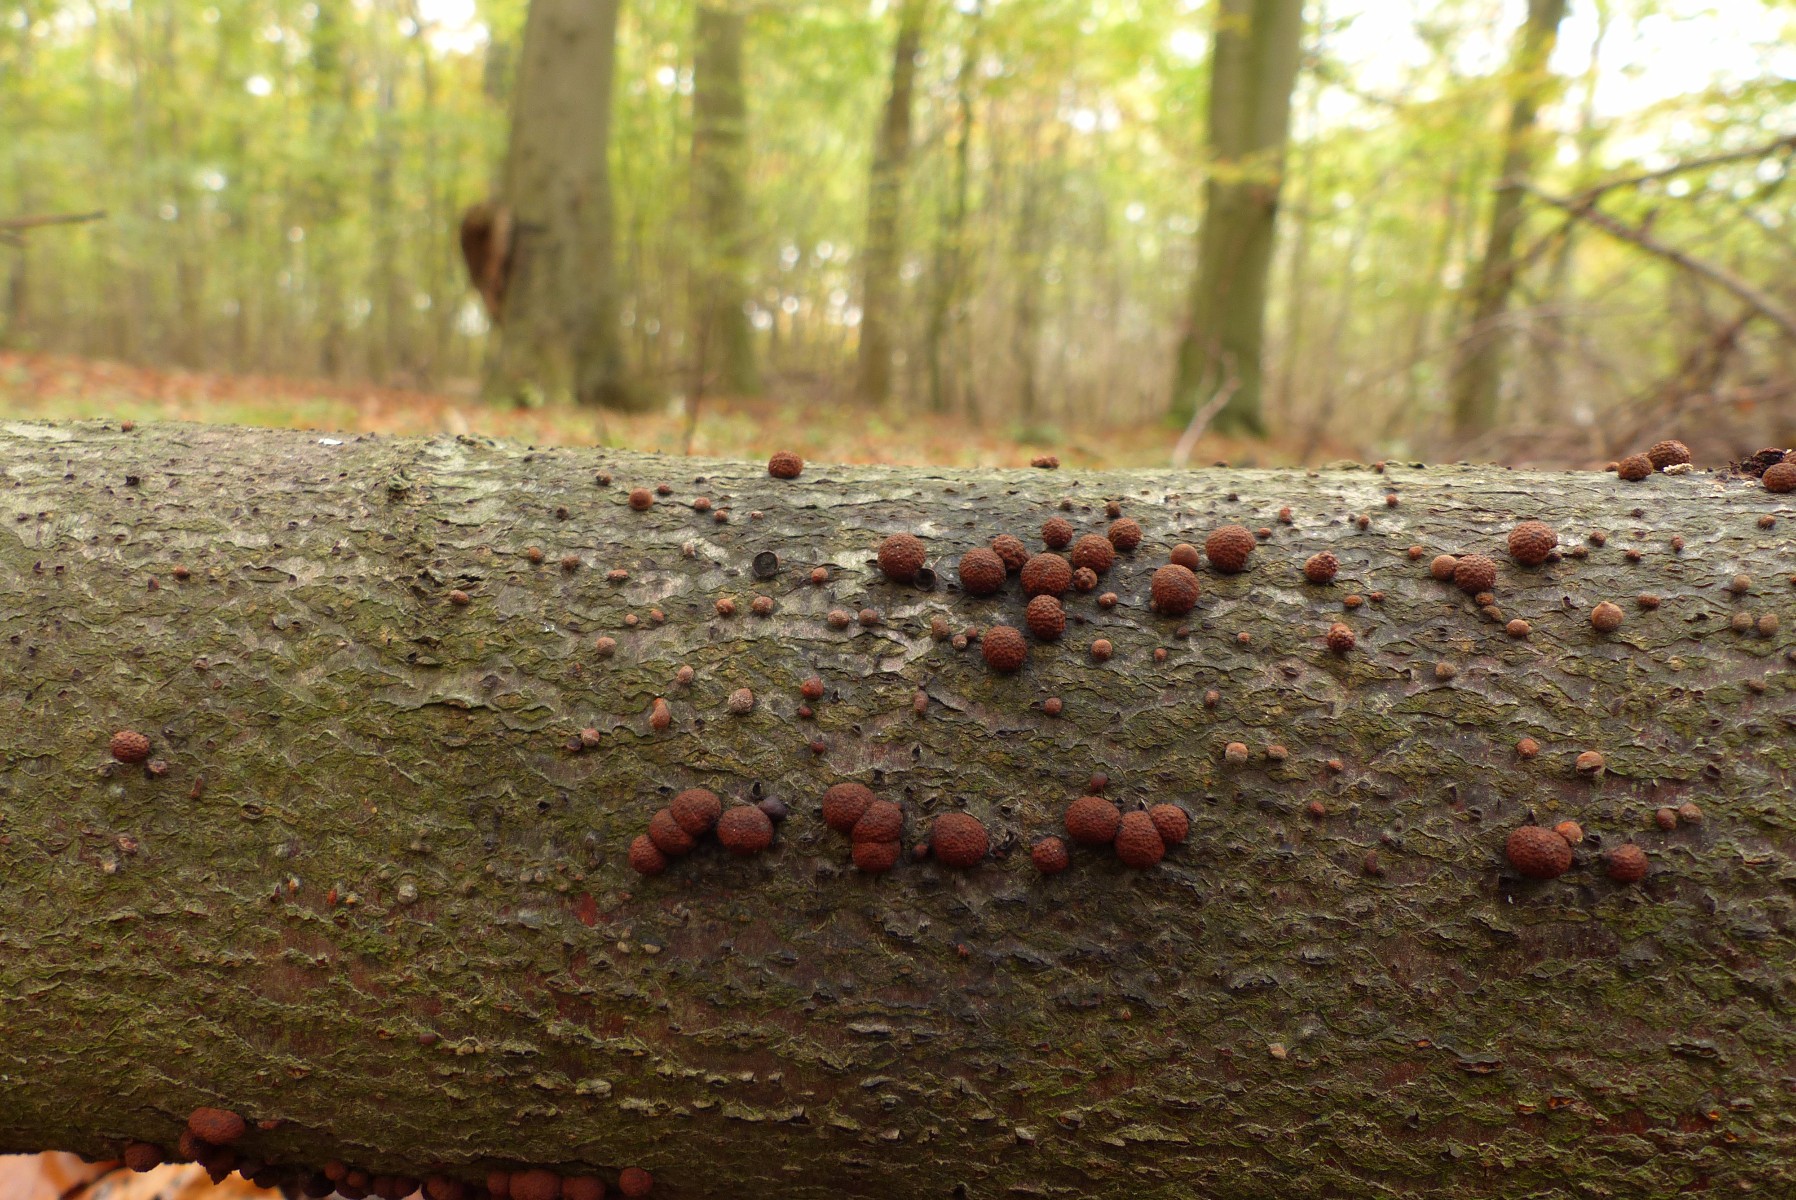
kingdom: Fungi
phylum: Ascomycota
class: Sordariomycetes
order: Xylariales
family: Hypoxylaceae
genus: Hypoxylon
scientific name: Hypoxylon fragiforme
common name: kuljordbær
